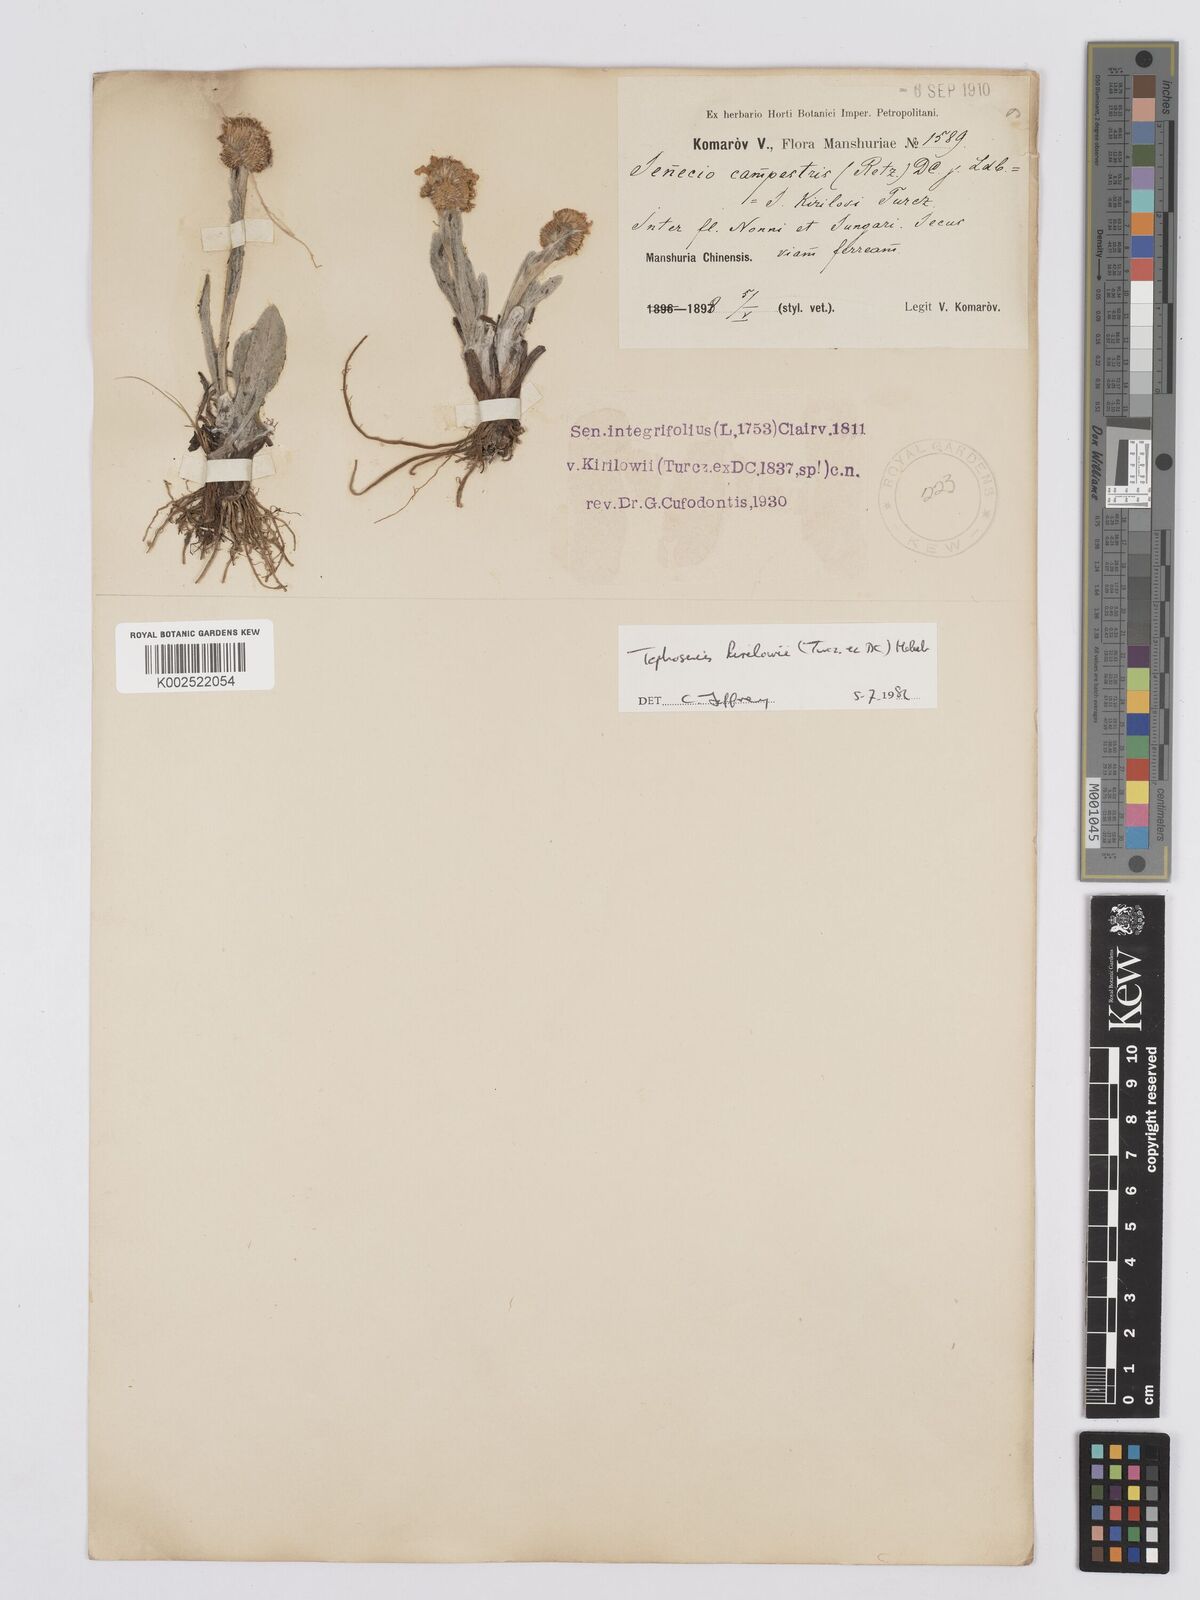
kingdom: Plantae
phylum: Tracheophyta
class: Magnoliopsida
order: Asterales
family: Asteraceae
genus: Tephroseris
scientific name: Tephroseris kirilowii
